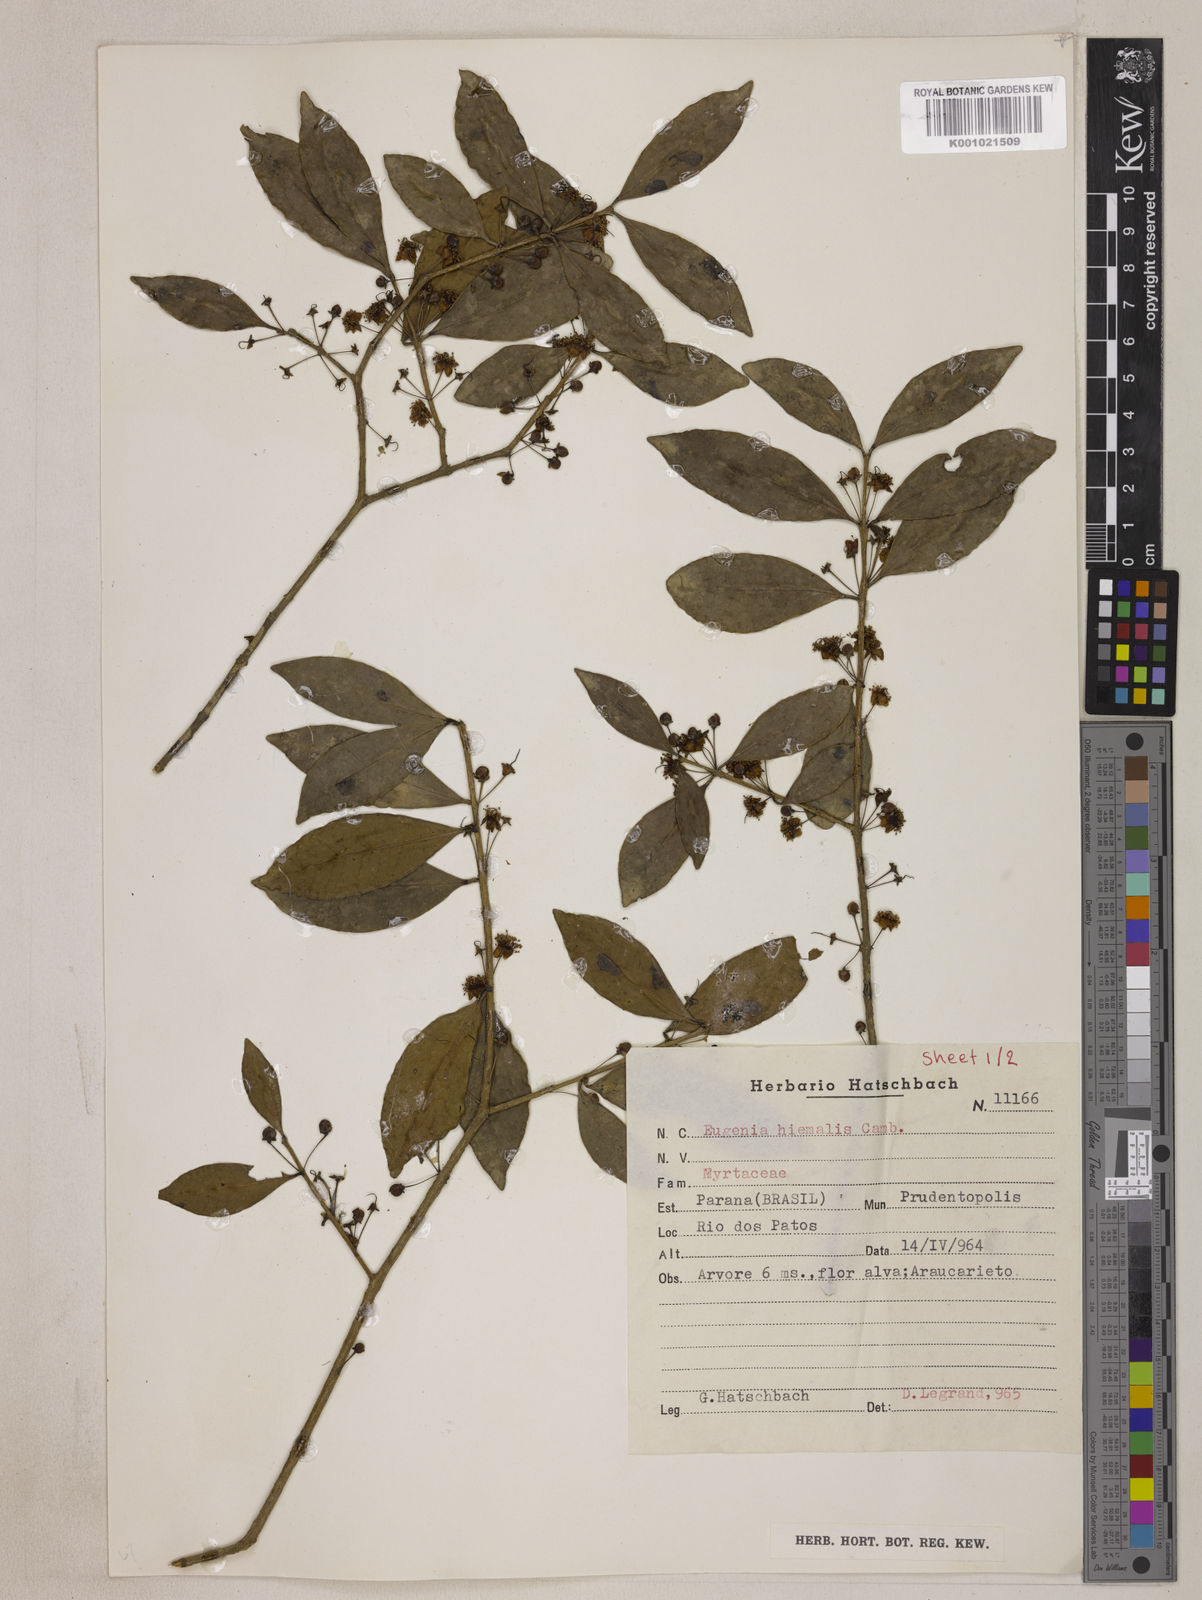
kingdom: Plantae
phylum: Tracheophyta
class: Magnoliopsida
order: Myrtales
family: Myrtaceae
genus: Eugenia
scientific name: Eugenia hiemalis
